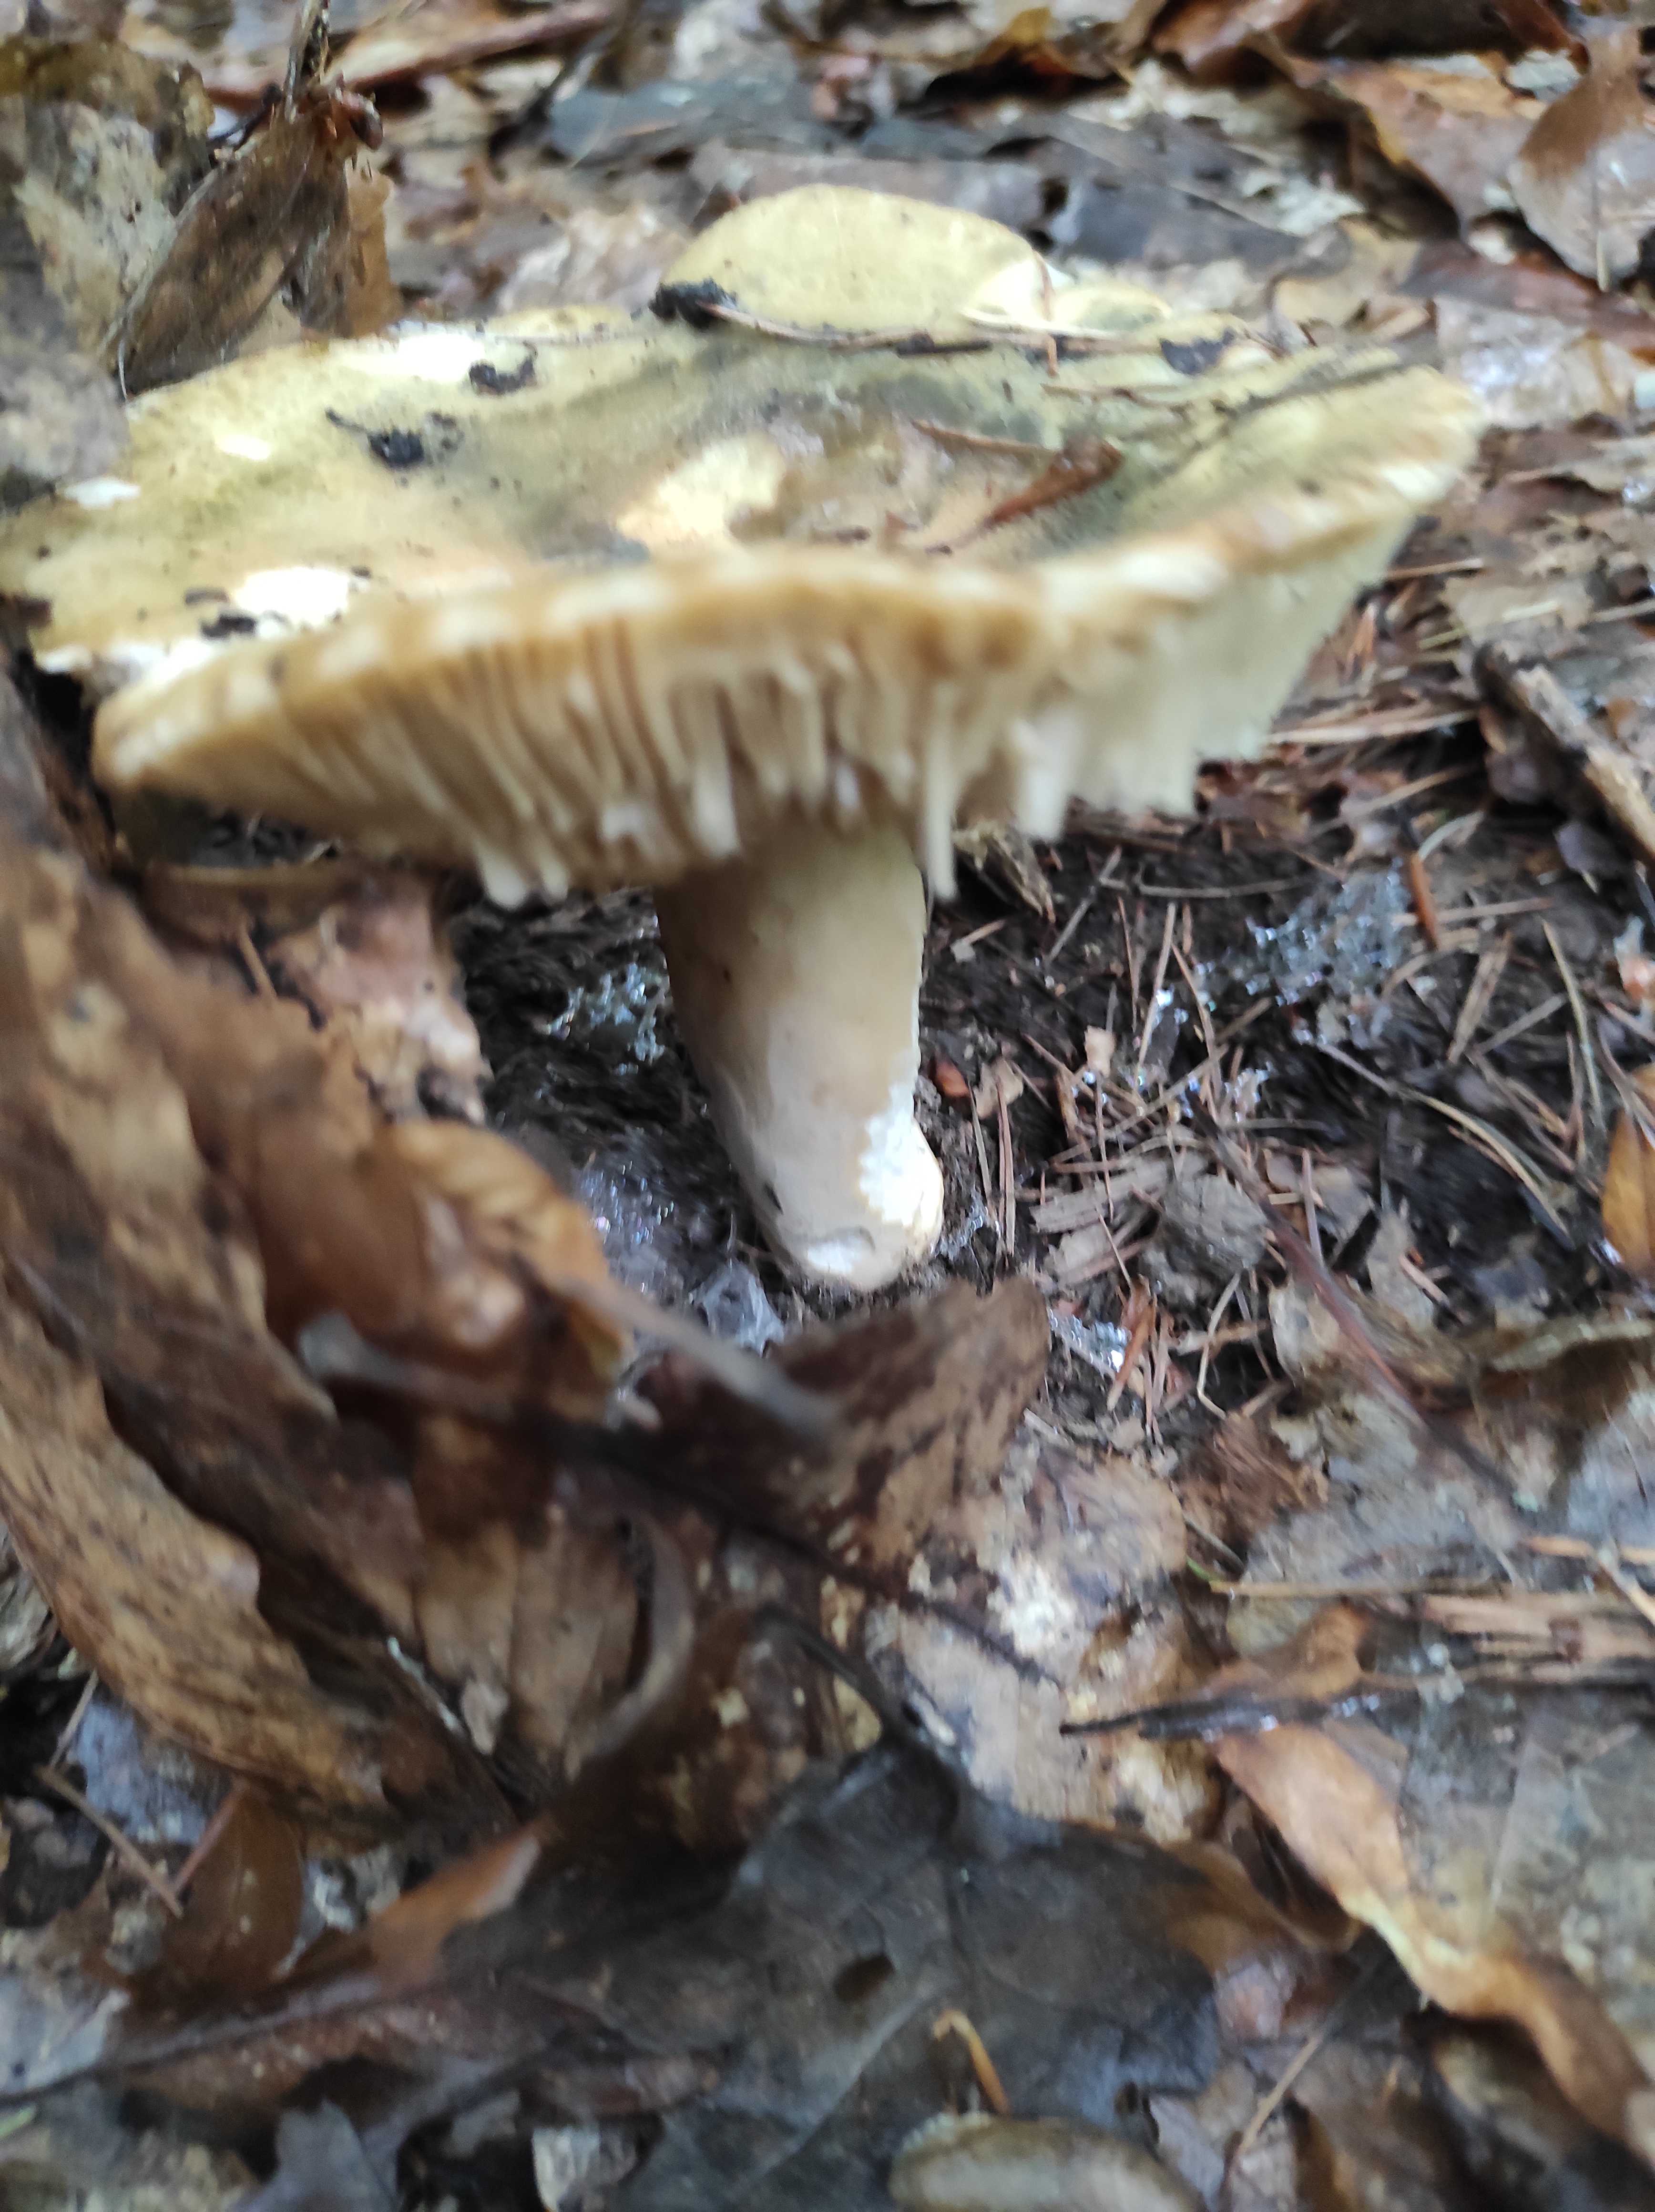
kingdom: Fungi
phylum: Basidiomycota
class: Agaricomycetes
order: Russulales
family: Russulaceae
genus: Russula
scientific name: Russula
